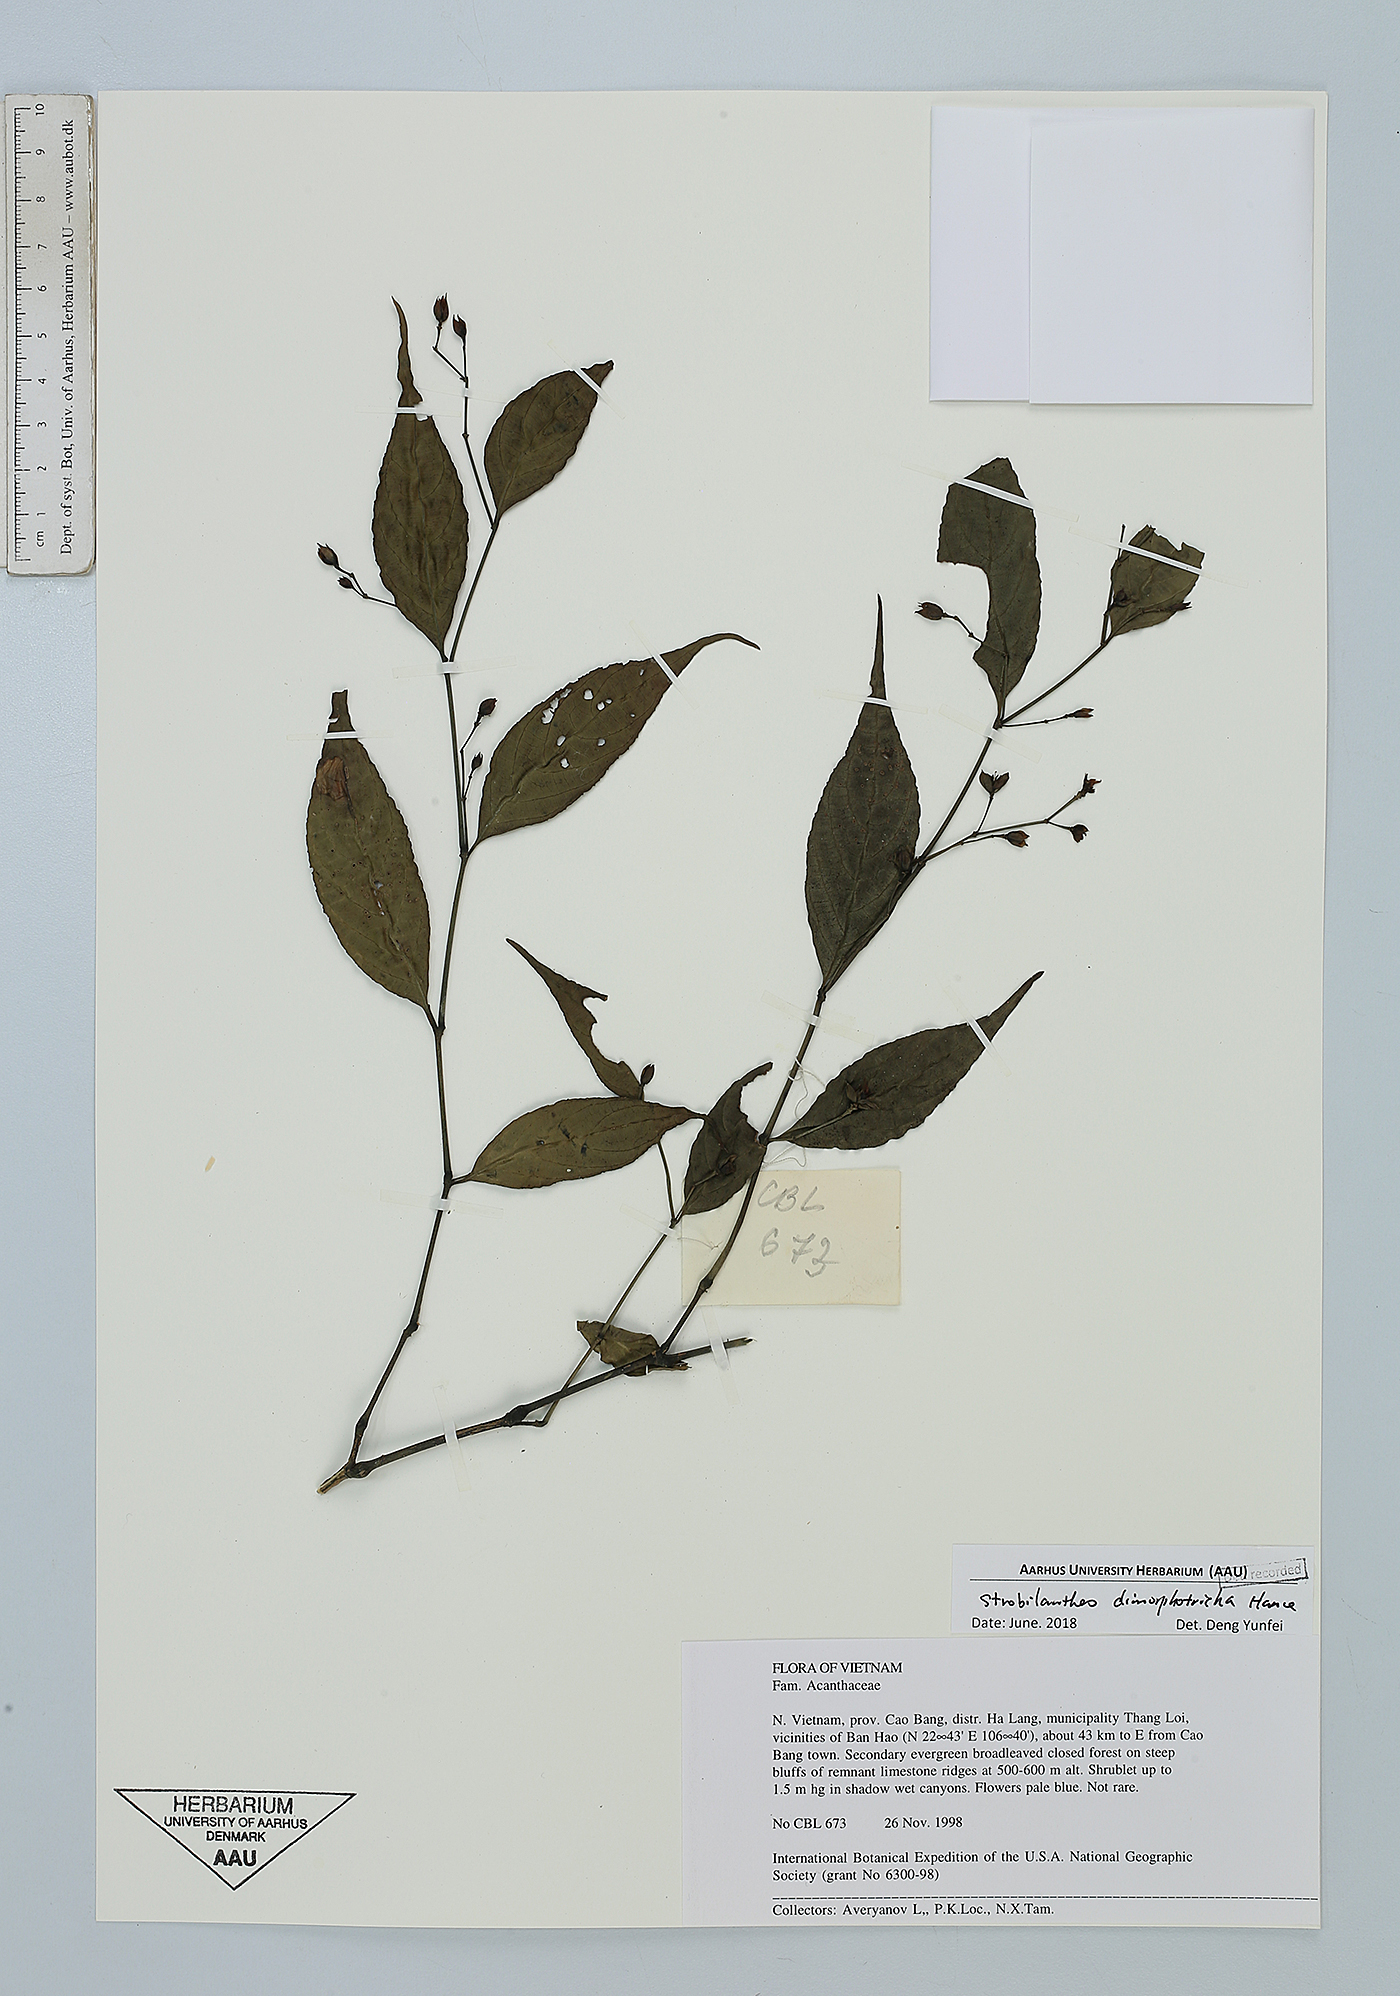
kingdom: Plantae
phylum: Tracheophyta
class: Magnoliopsida
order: Lamiales
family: Acanthaceae
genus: Strobilanthes
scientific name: Strobilanthes dimorphotricha
